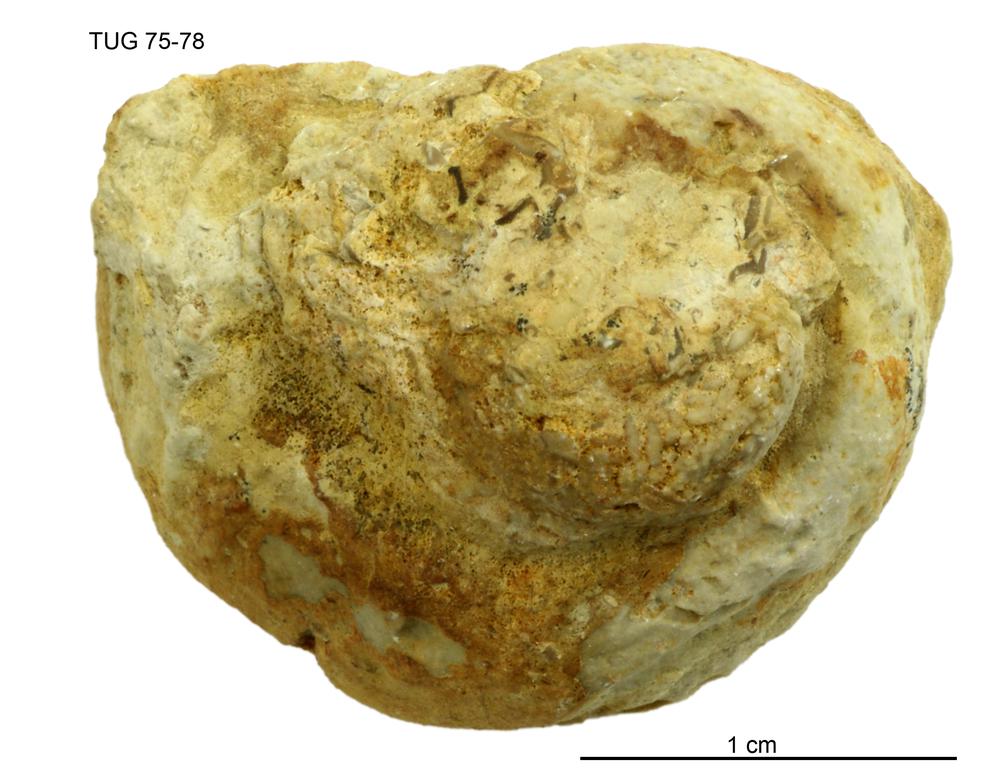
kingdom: Animalia
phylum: Mollusca
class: Gastropoda
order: Pleurotomariida
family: Eotomariidae
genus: Liospira
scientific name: Liospira Raphistoma wesenbergense
